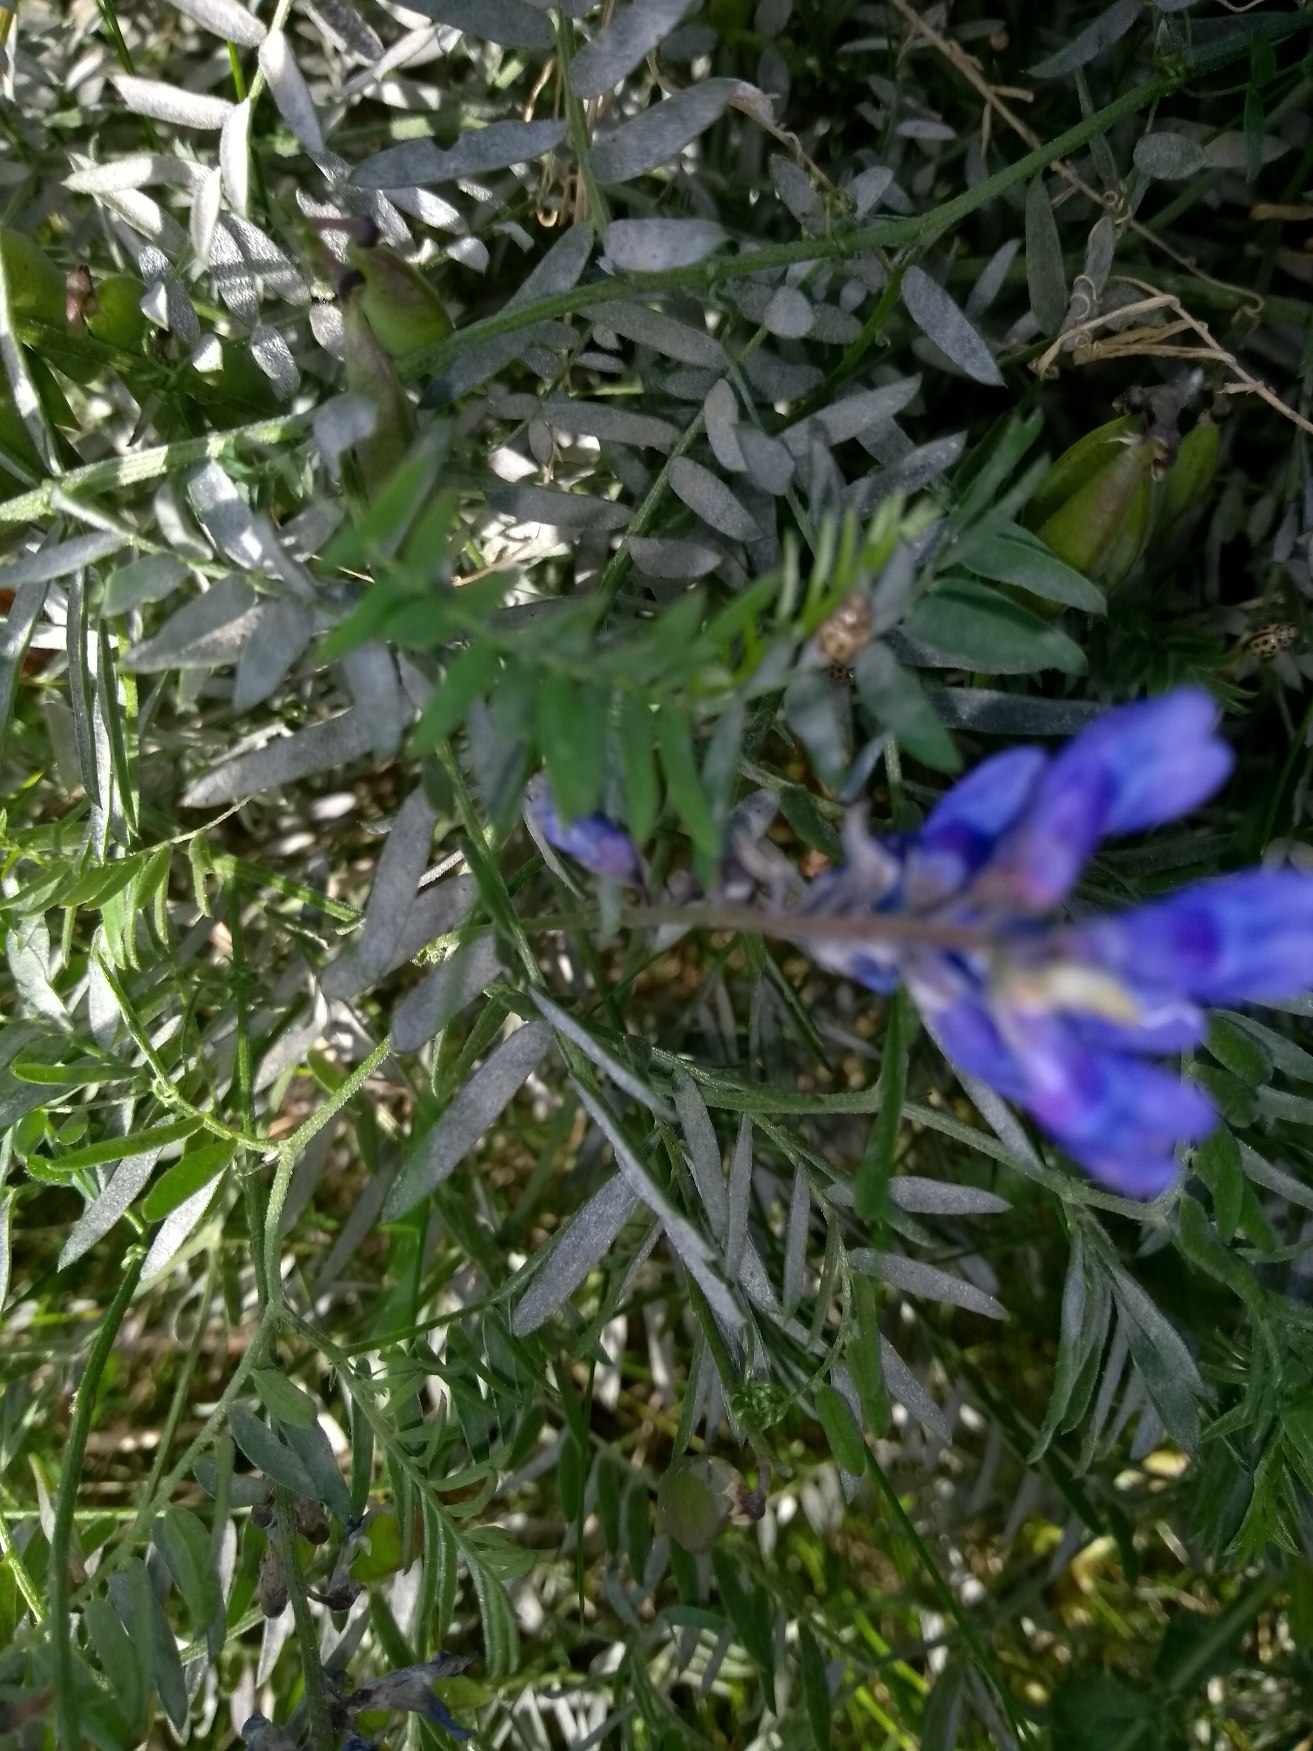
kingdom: Plantae
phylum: Tracheophyta
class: Magnoliopsida
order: Fabales
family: Fabaceae
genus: Vicia
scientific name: Vicia cracca
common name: Muse-vikke
